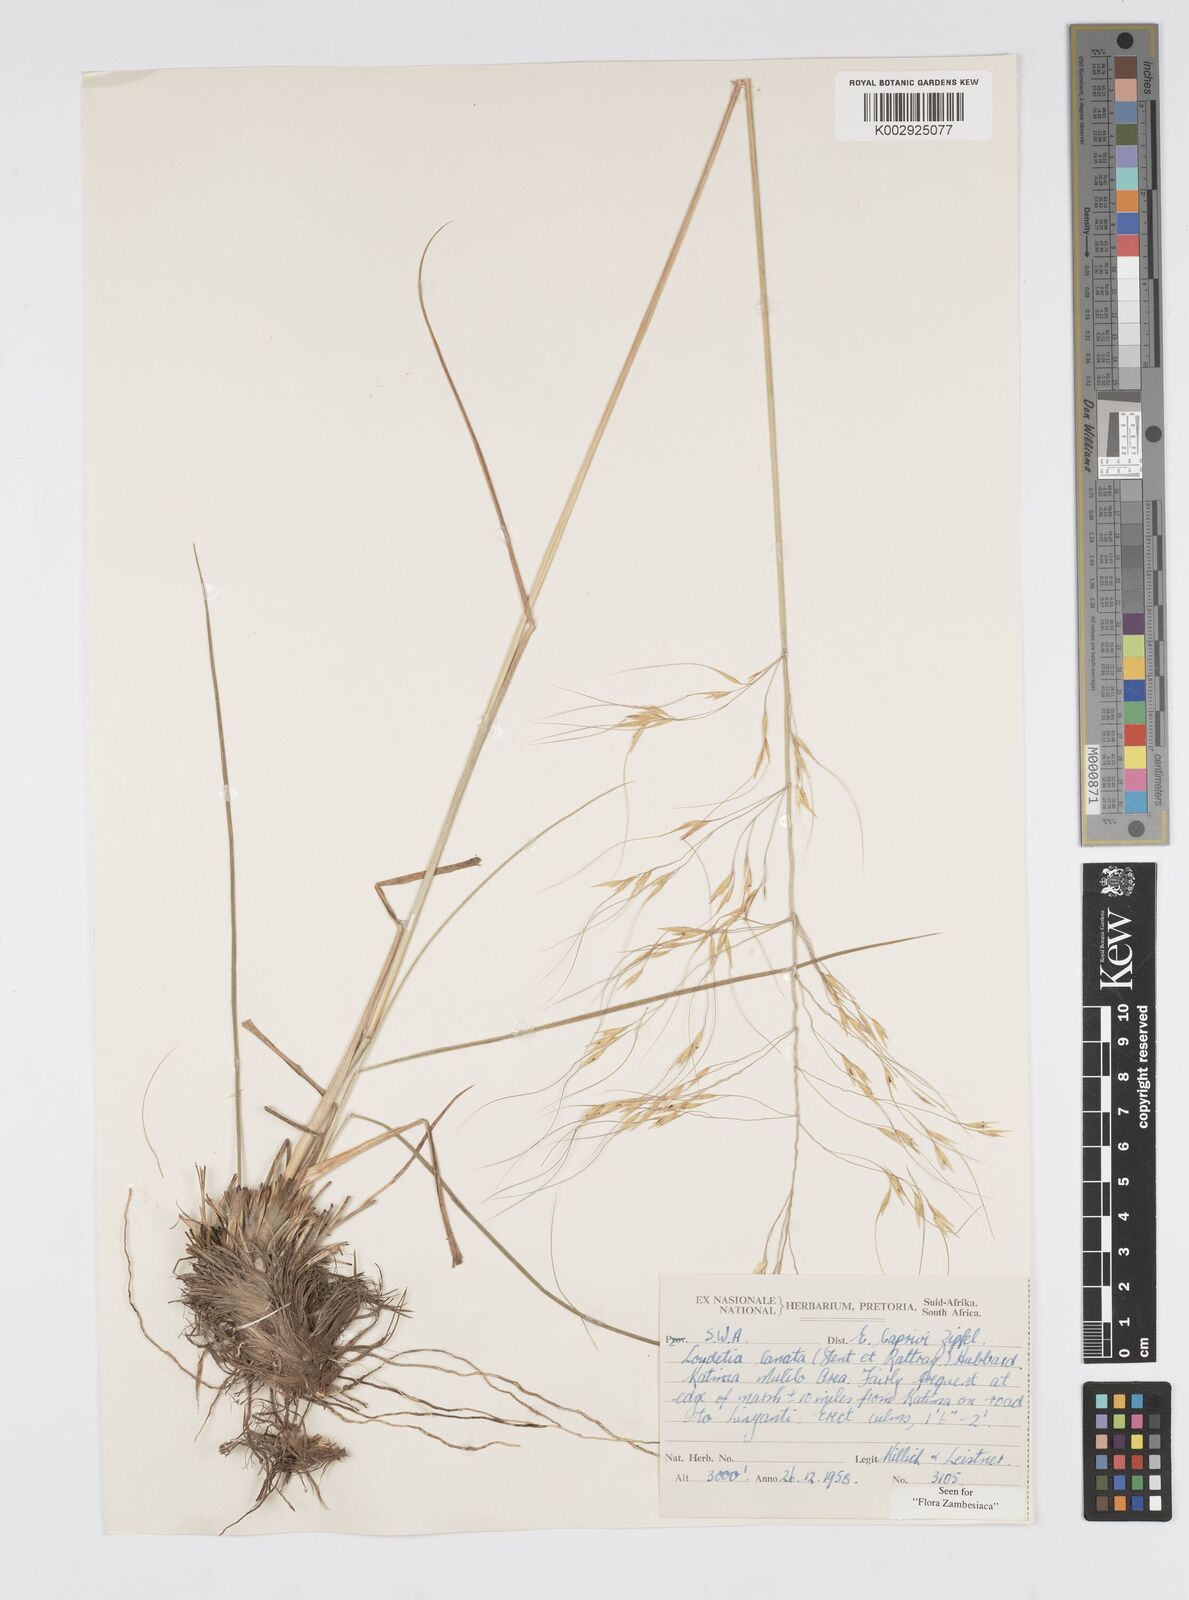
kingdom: Plantae
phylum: Tracheophyta
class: Liliopsida
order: Poales
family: Poaceae
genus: Loudetia
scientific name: Loudetia lanata
